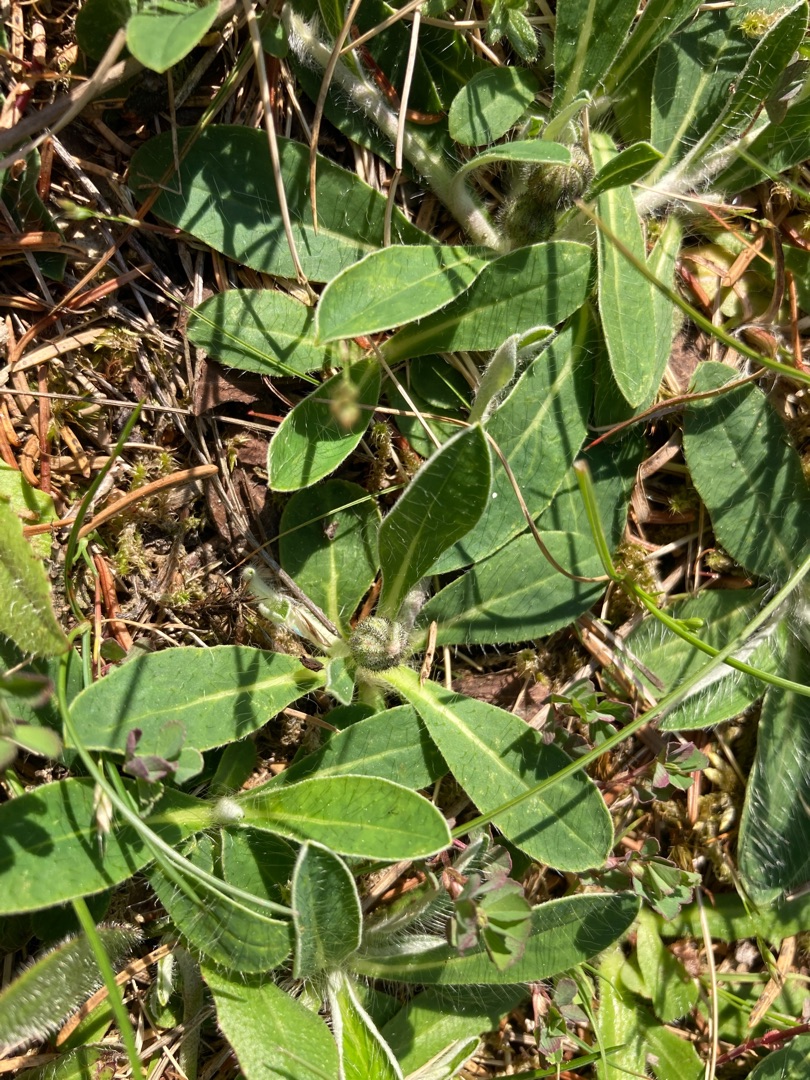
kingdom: Plantae
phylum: Tracheophyta
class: Magnoliopsida
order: Asterales
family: Asteraceae
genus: Pilosella
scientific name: Pilosella officinarum
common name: Håret høgeurt
